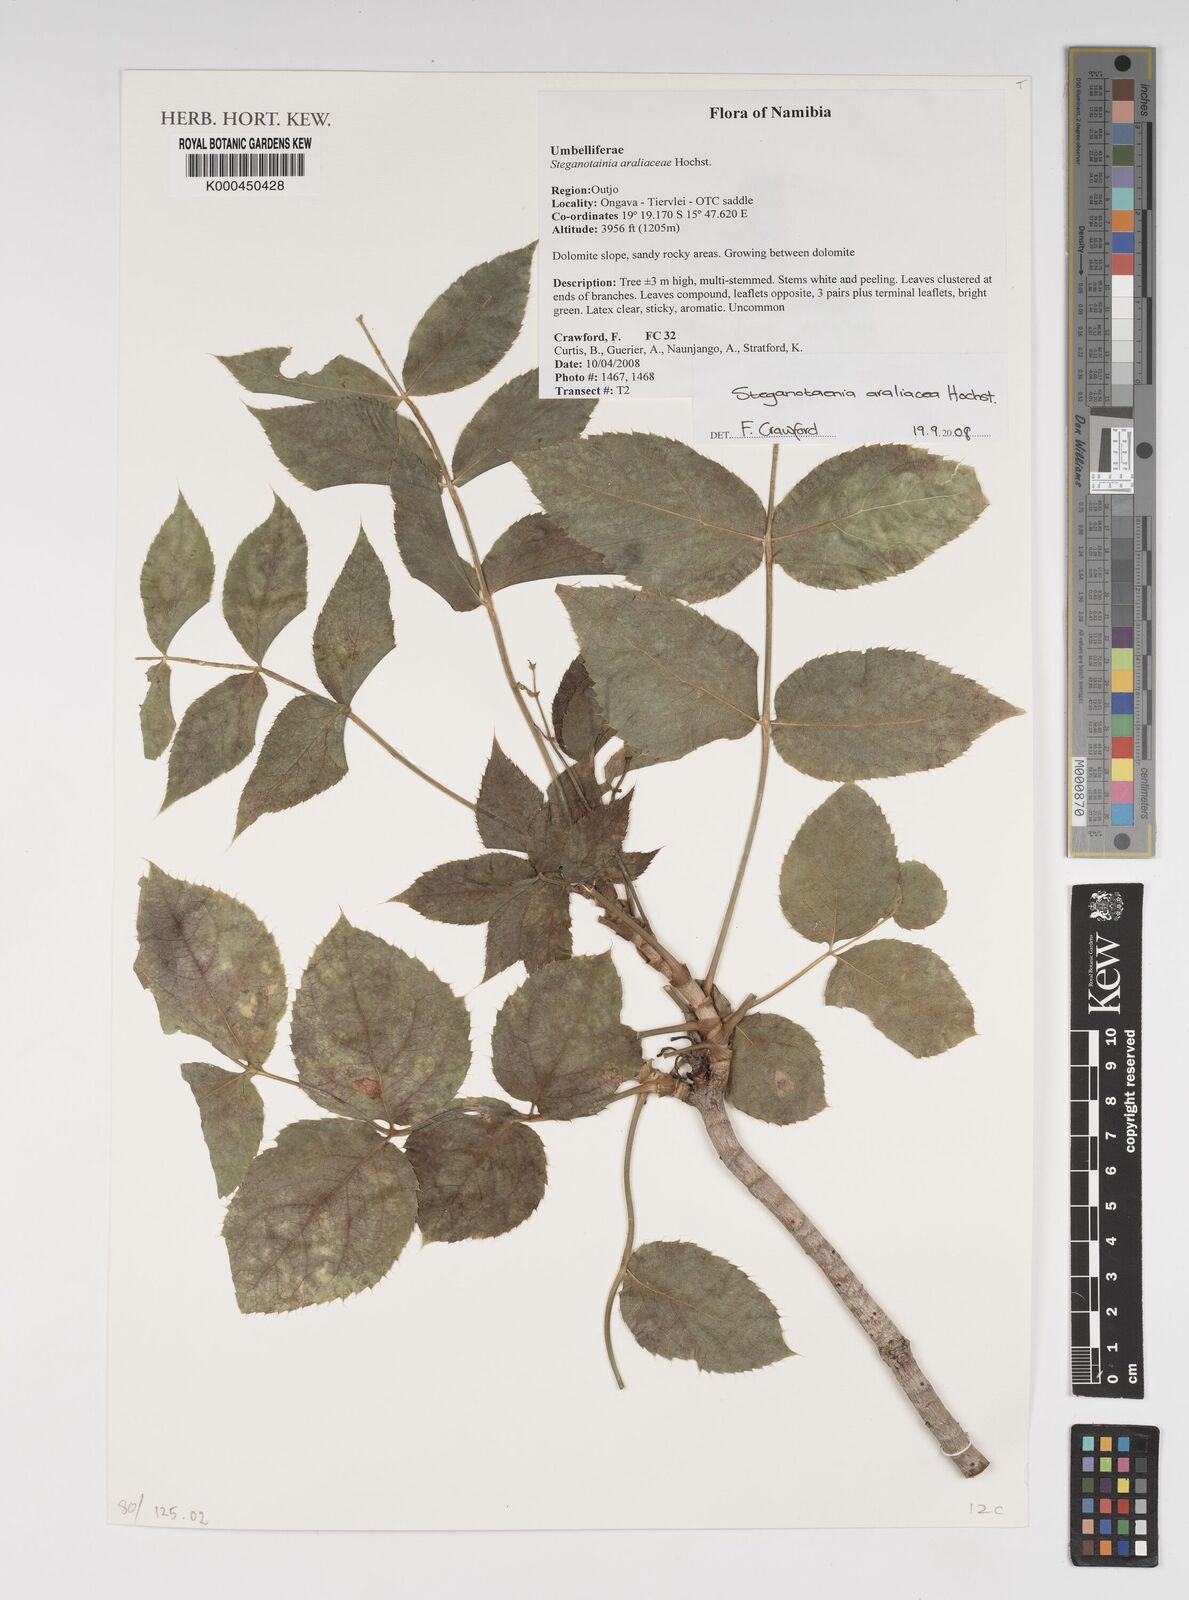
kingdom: Plantae
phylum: Tracheophyta
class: Magnoliopsida
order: Apiales
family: Apiaceae
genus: Steganotaenia
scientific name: Steganotaenia araliacea
